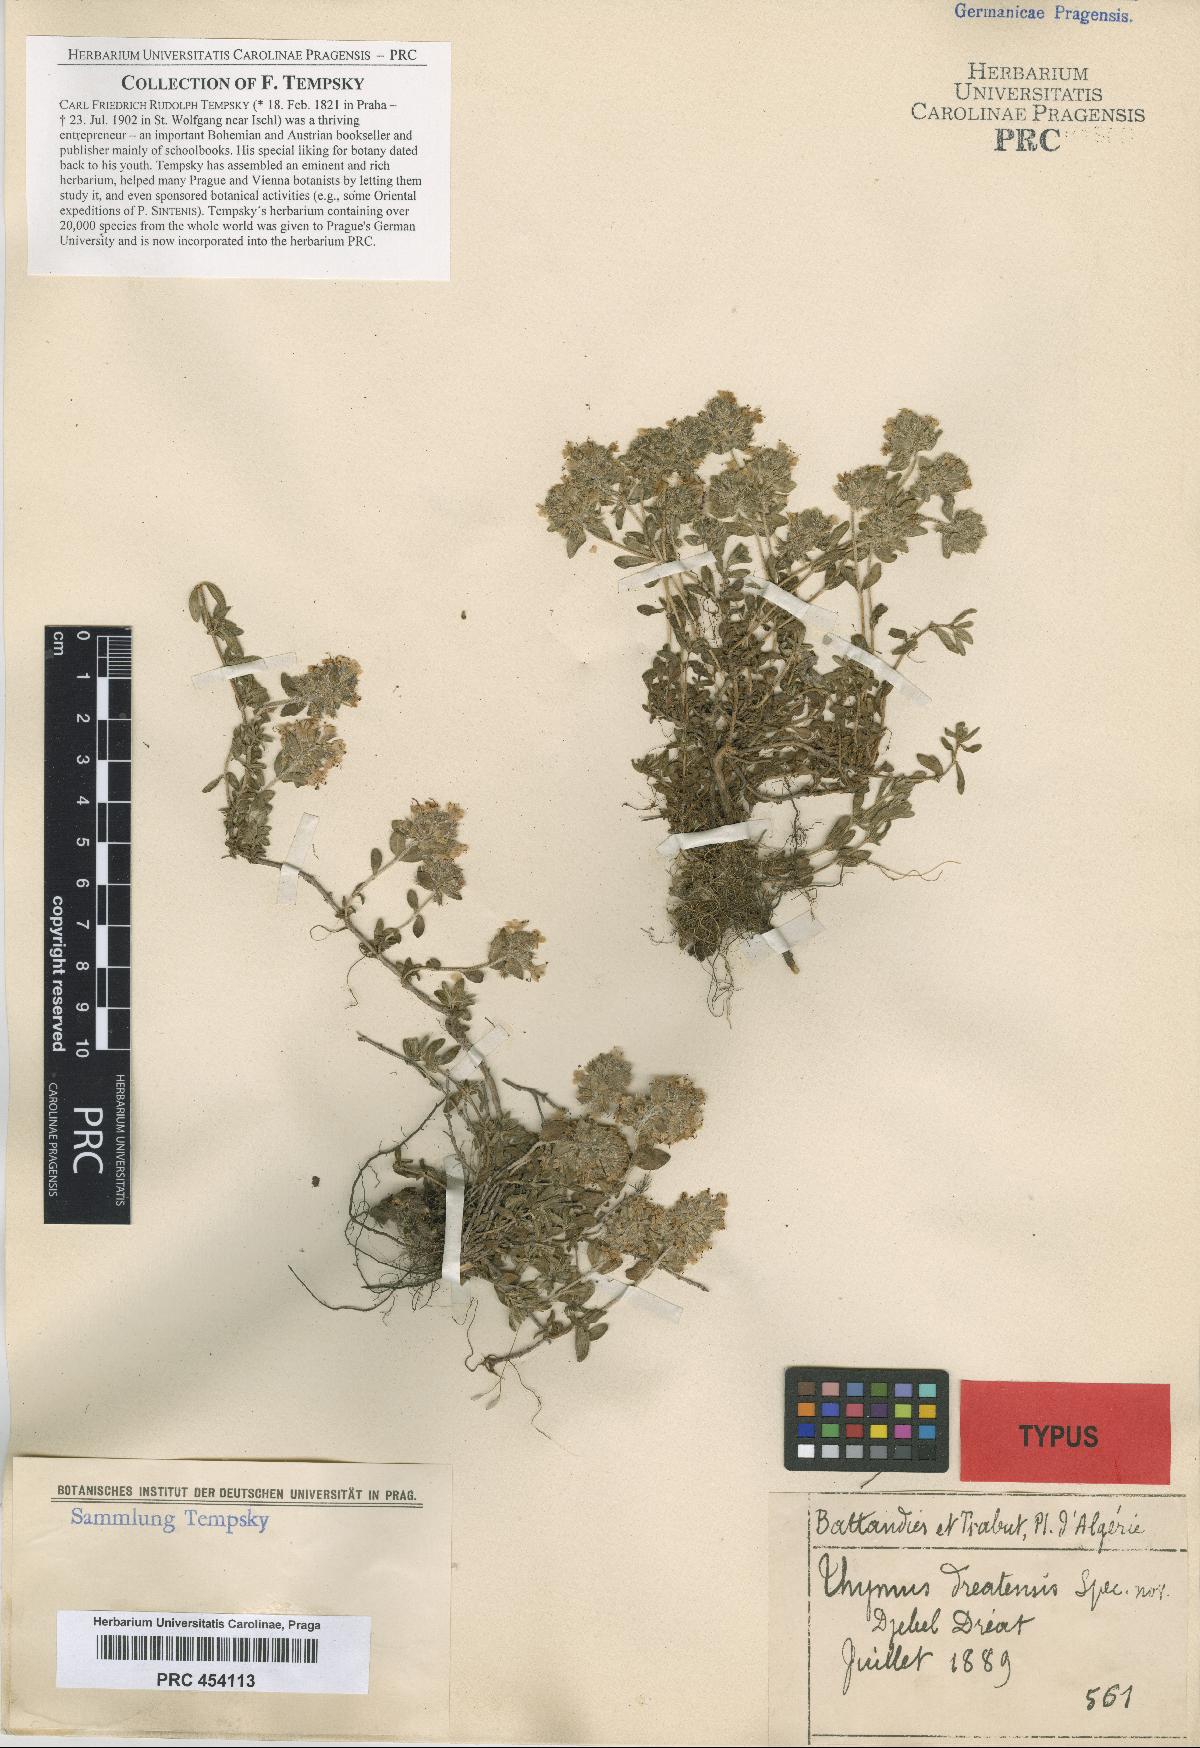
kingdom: Plantae
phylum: Tracheophyta
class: Magnoliopsida
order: Lamiales
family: Lamiaceae
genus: Thymus
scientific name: Thymus dreatensis
